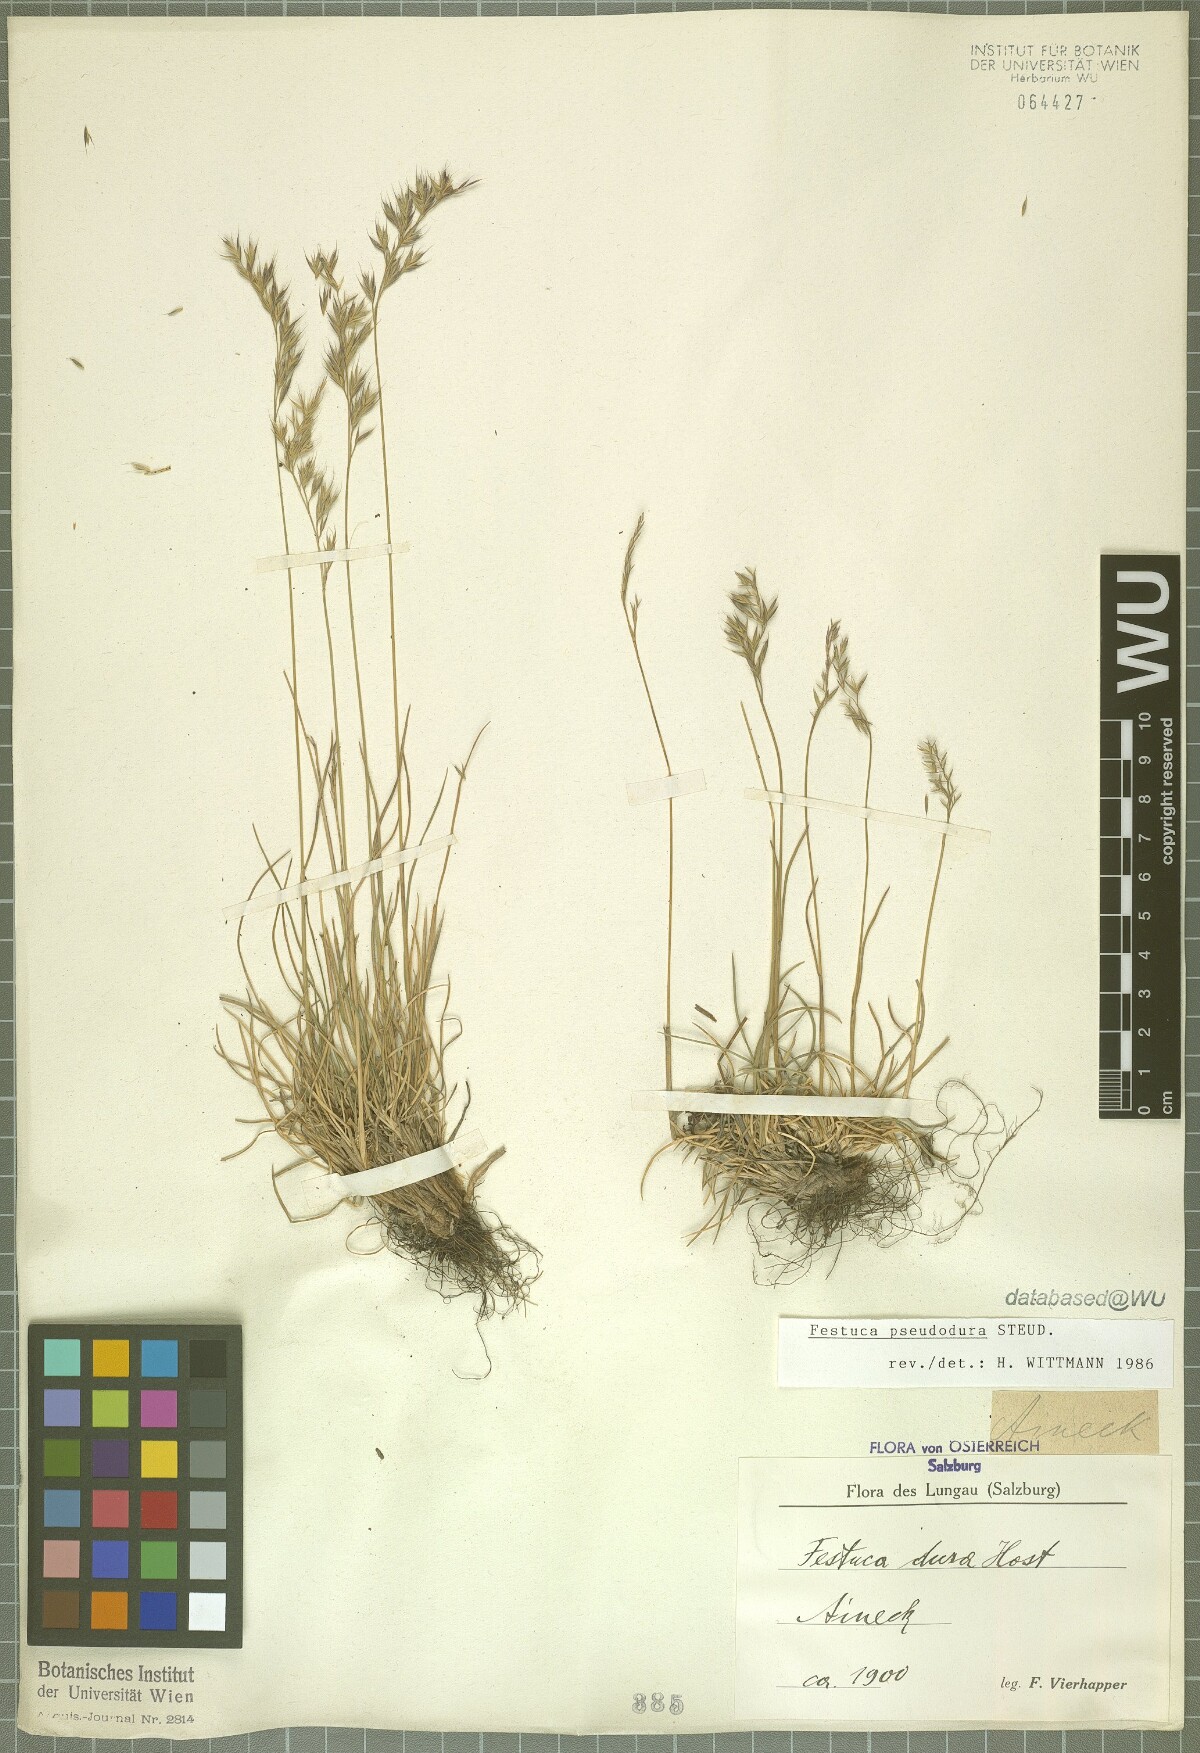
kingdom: Plantae
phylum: Tracheophyta
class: Liliopsida
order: Poales
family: Poaceae
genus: Festuca
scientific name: Festuca pseudodura
